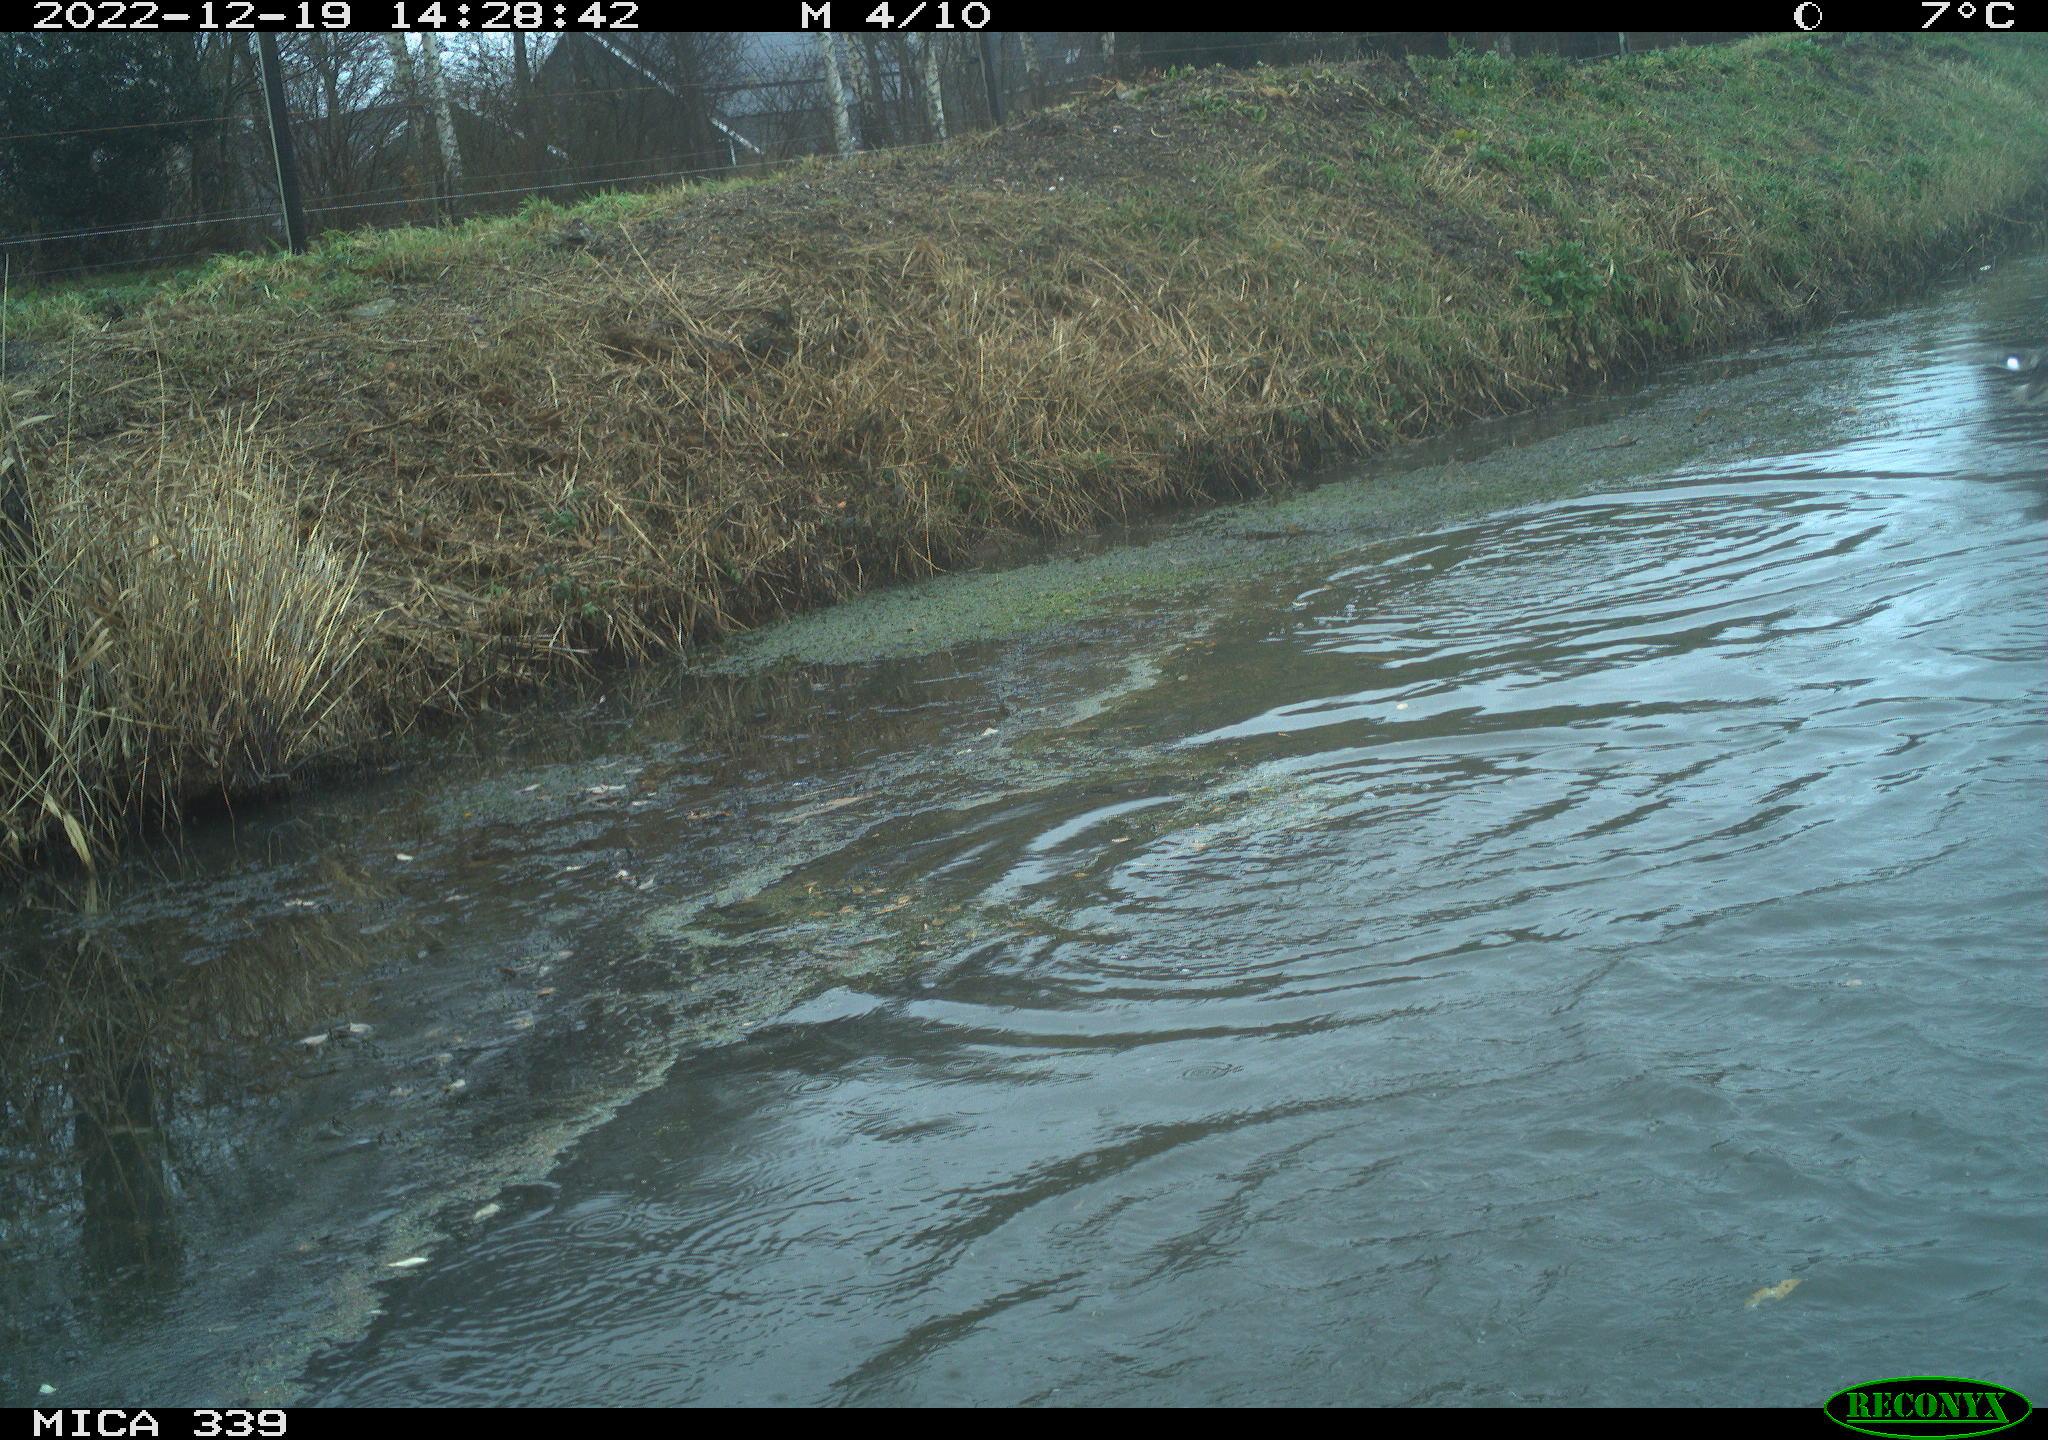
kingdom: Animalia
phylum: Chordata
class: Aves
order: Anseriformes
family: Anatidae
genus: Anas
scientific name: Anas
